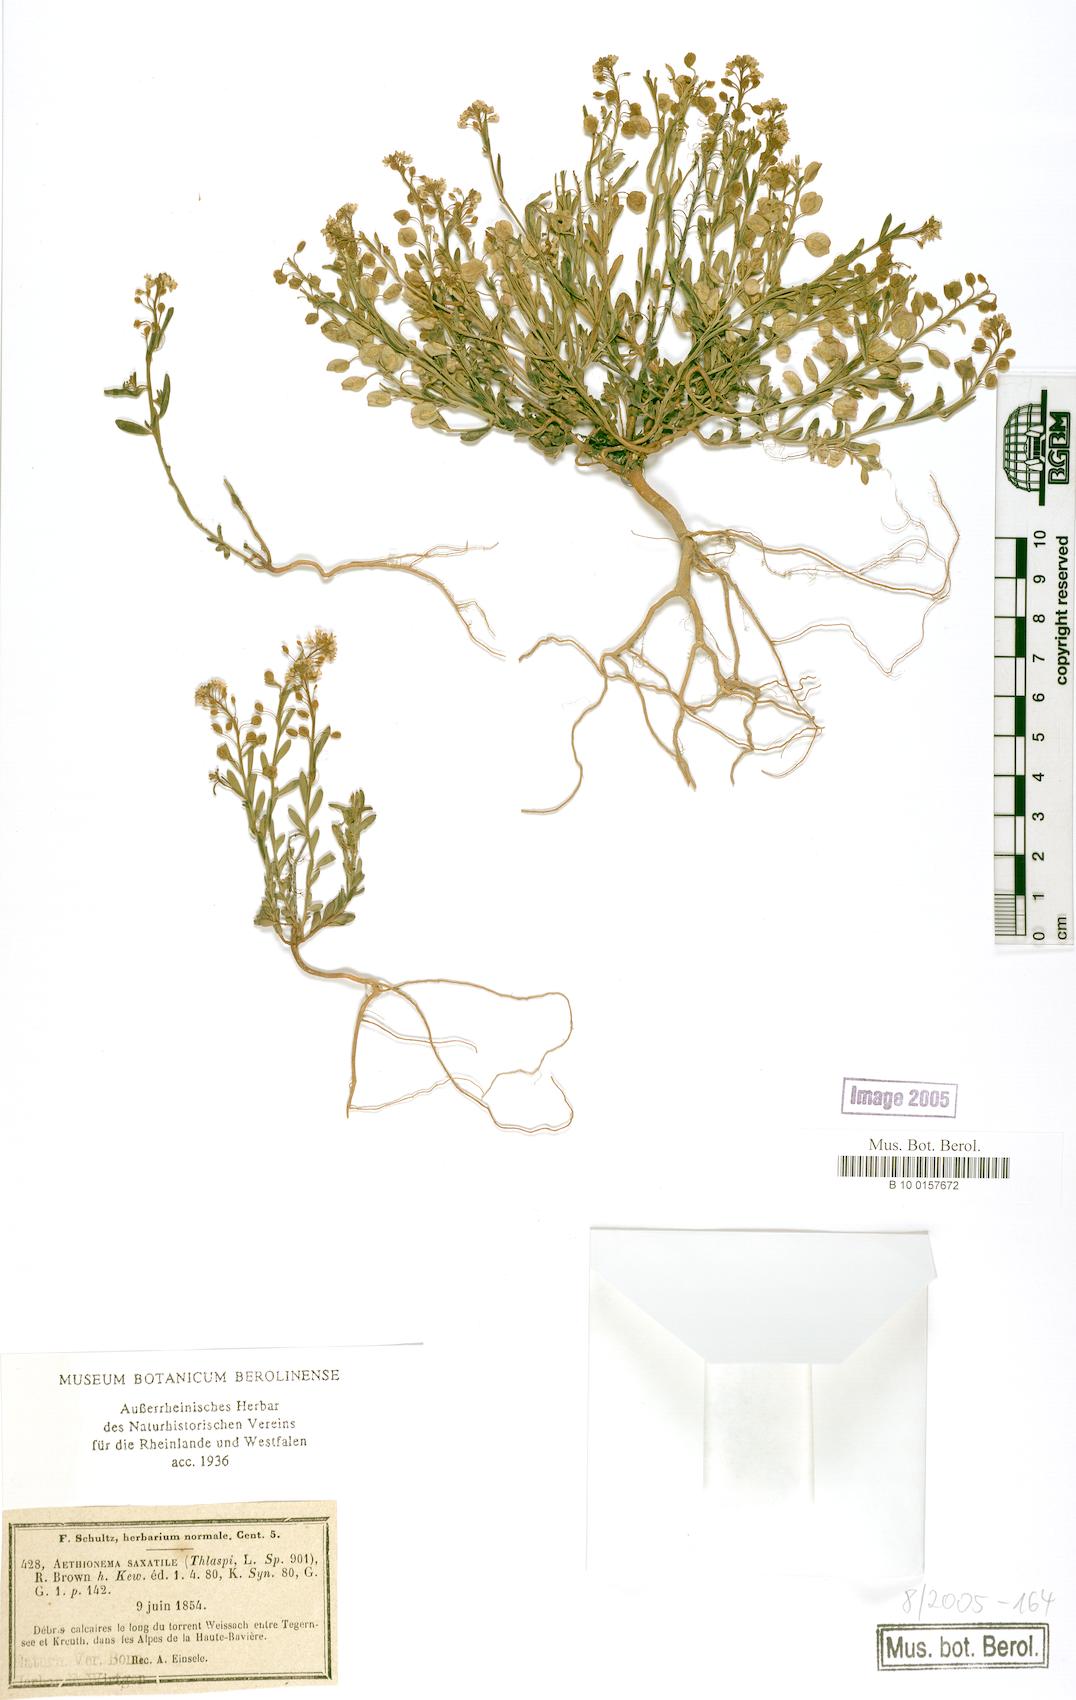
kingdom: Plantae
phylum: Tracheophyta
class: Magnoliopsida
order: Brassicales
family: Brassicaceae
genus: Aethionema
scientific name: Aethionema saxatile
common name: Burnt candytuft
